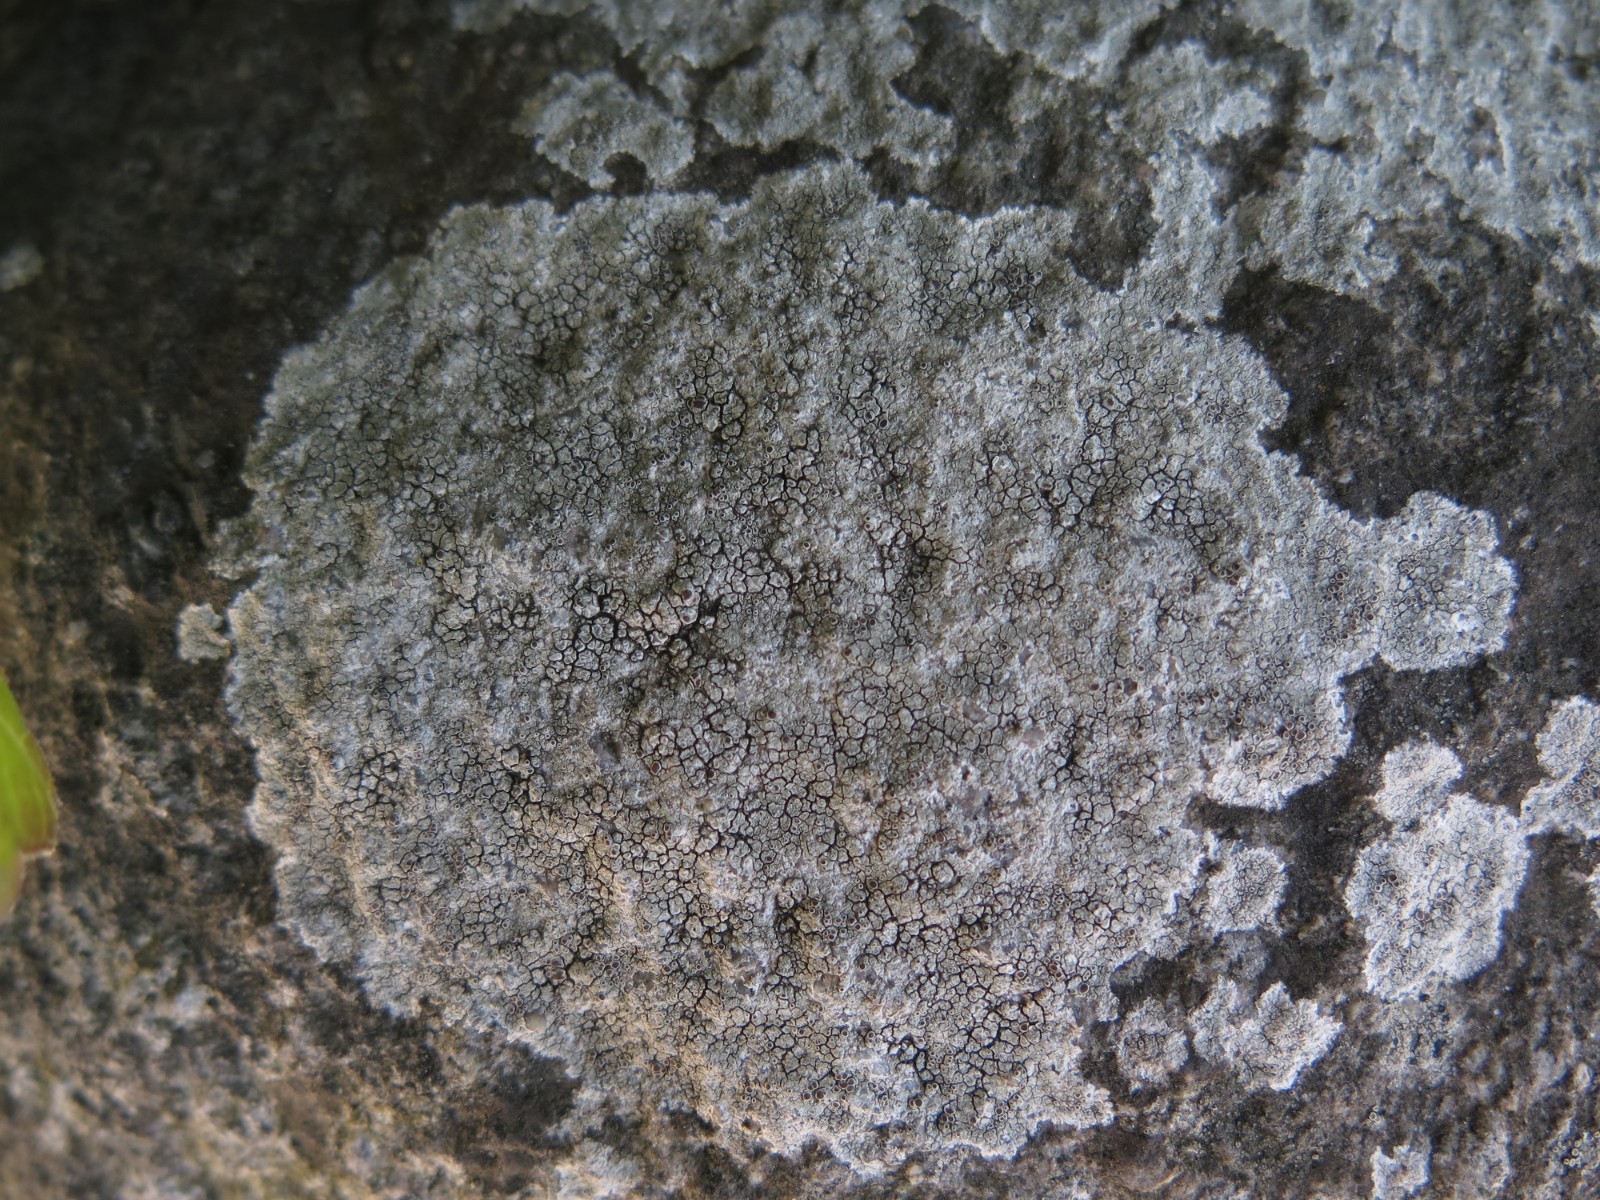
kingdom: Fungi
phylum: Ascomycota
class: Lecanoromycetes
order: Lecanorales
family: Lecanoraceae
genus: Lecanora
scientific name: Lecanora campestris
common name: mur-kantskivelav
